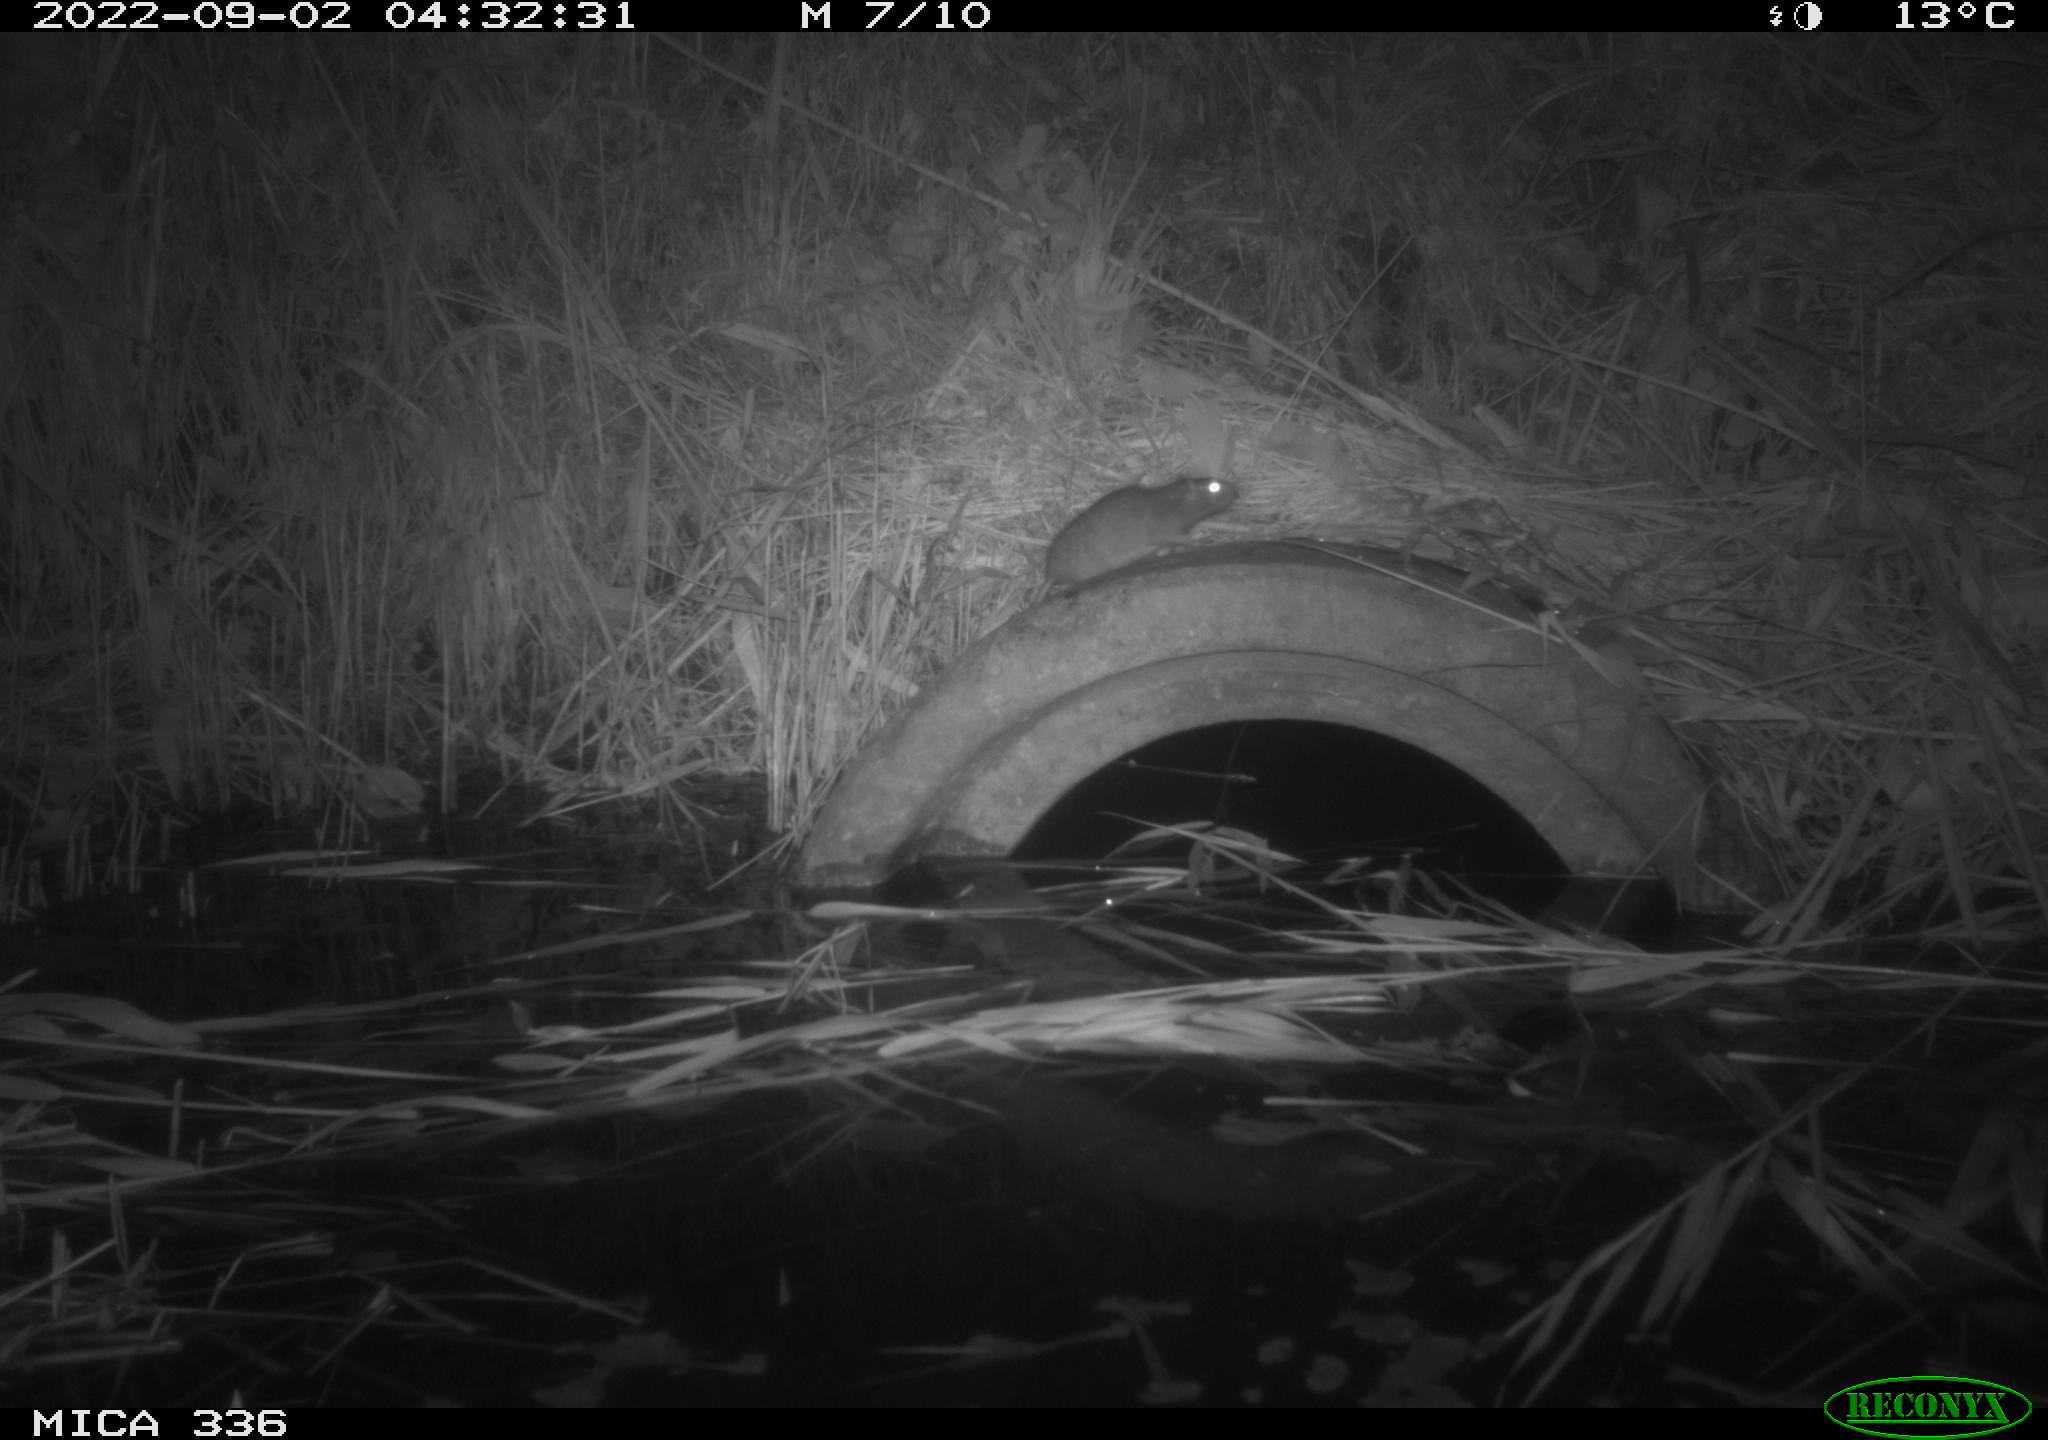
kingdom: Animalia
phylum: Chordata
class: Mammalia
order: Rodentia
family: Muridae
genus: Rattus
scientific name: Rattus norvegicus
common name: Brown rat
